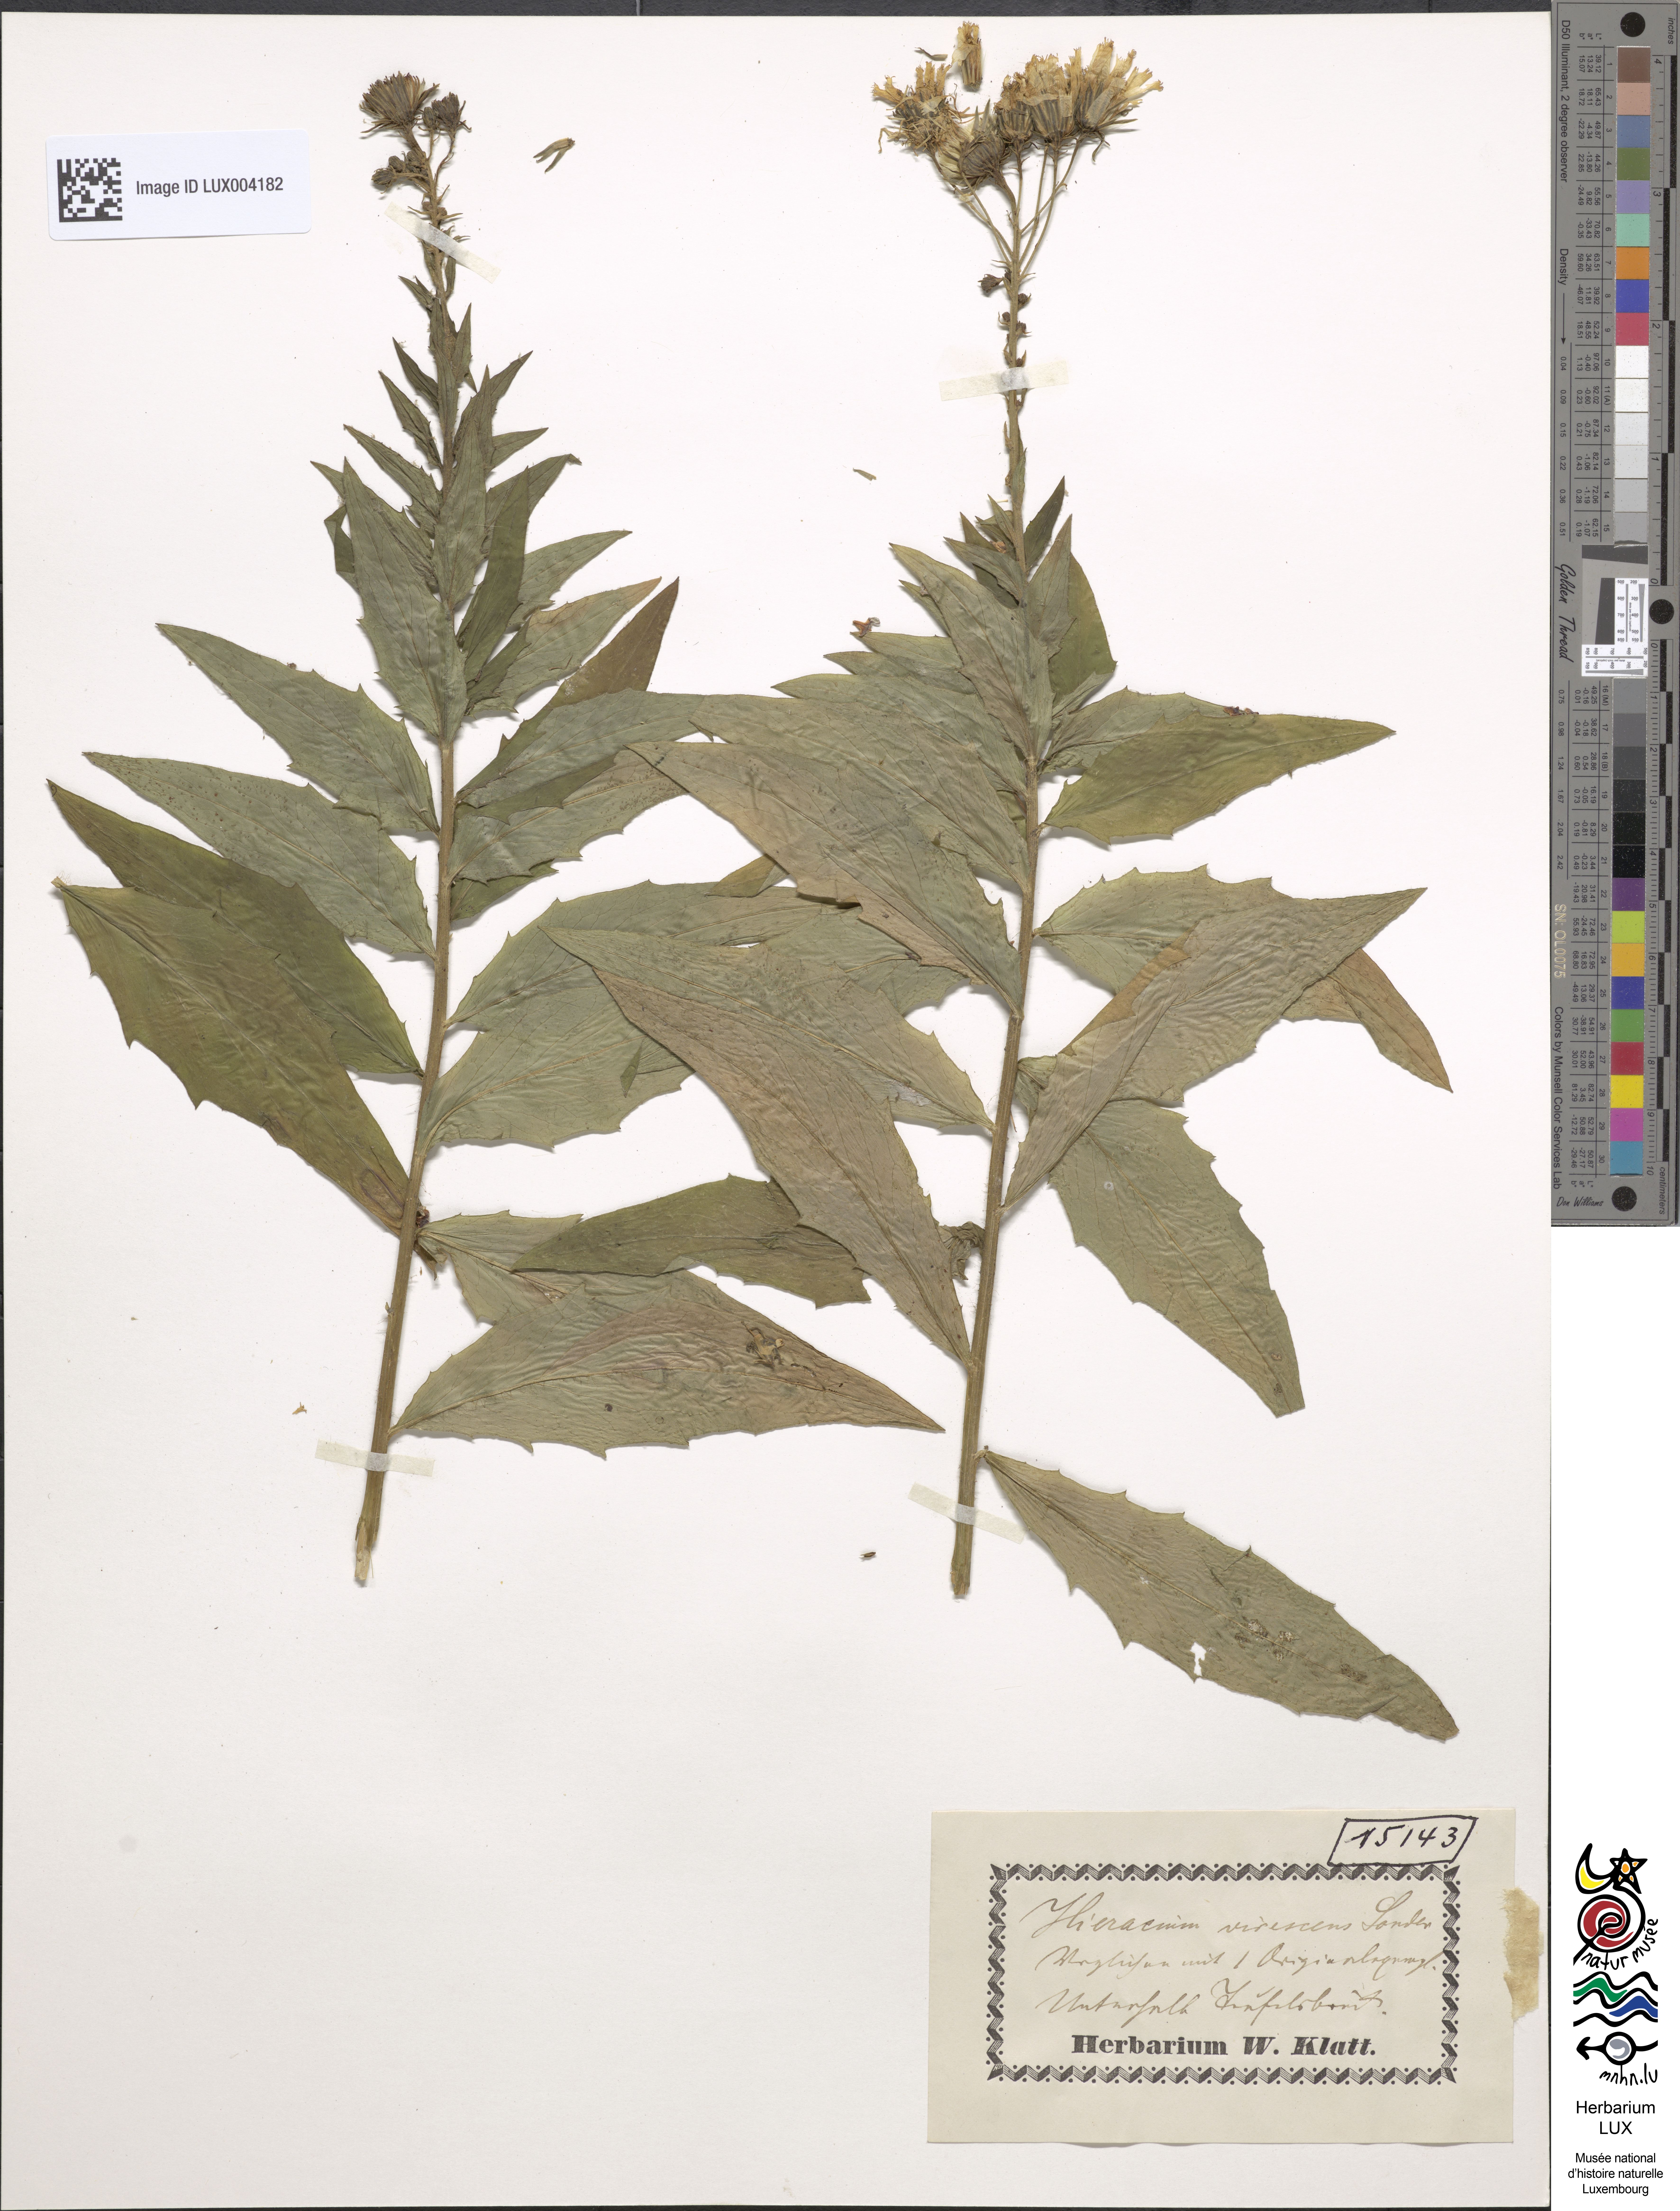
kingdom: Plantae
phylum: Tracheophyta
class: Magnoliopsida
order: Asterales
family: Asteraceae
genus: Hieracium
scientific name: Hieracium sabaudum
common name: New england hawkweed
